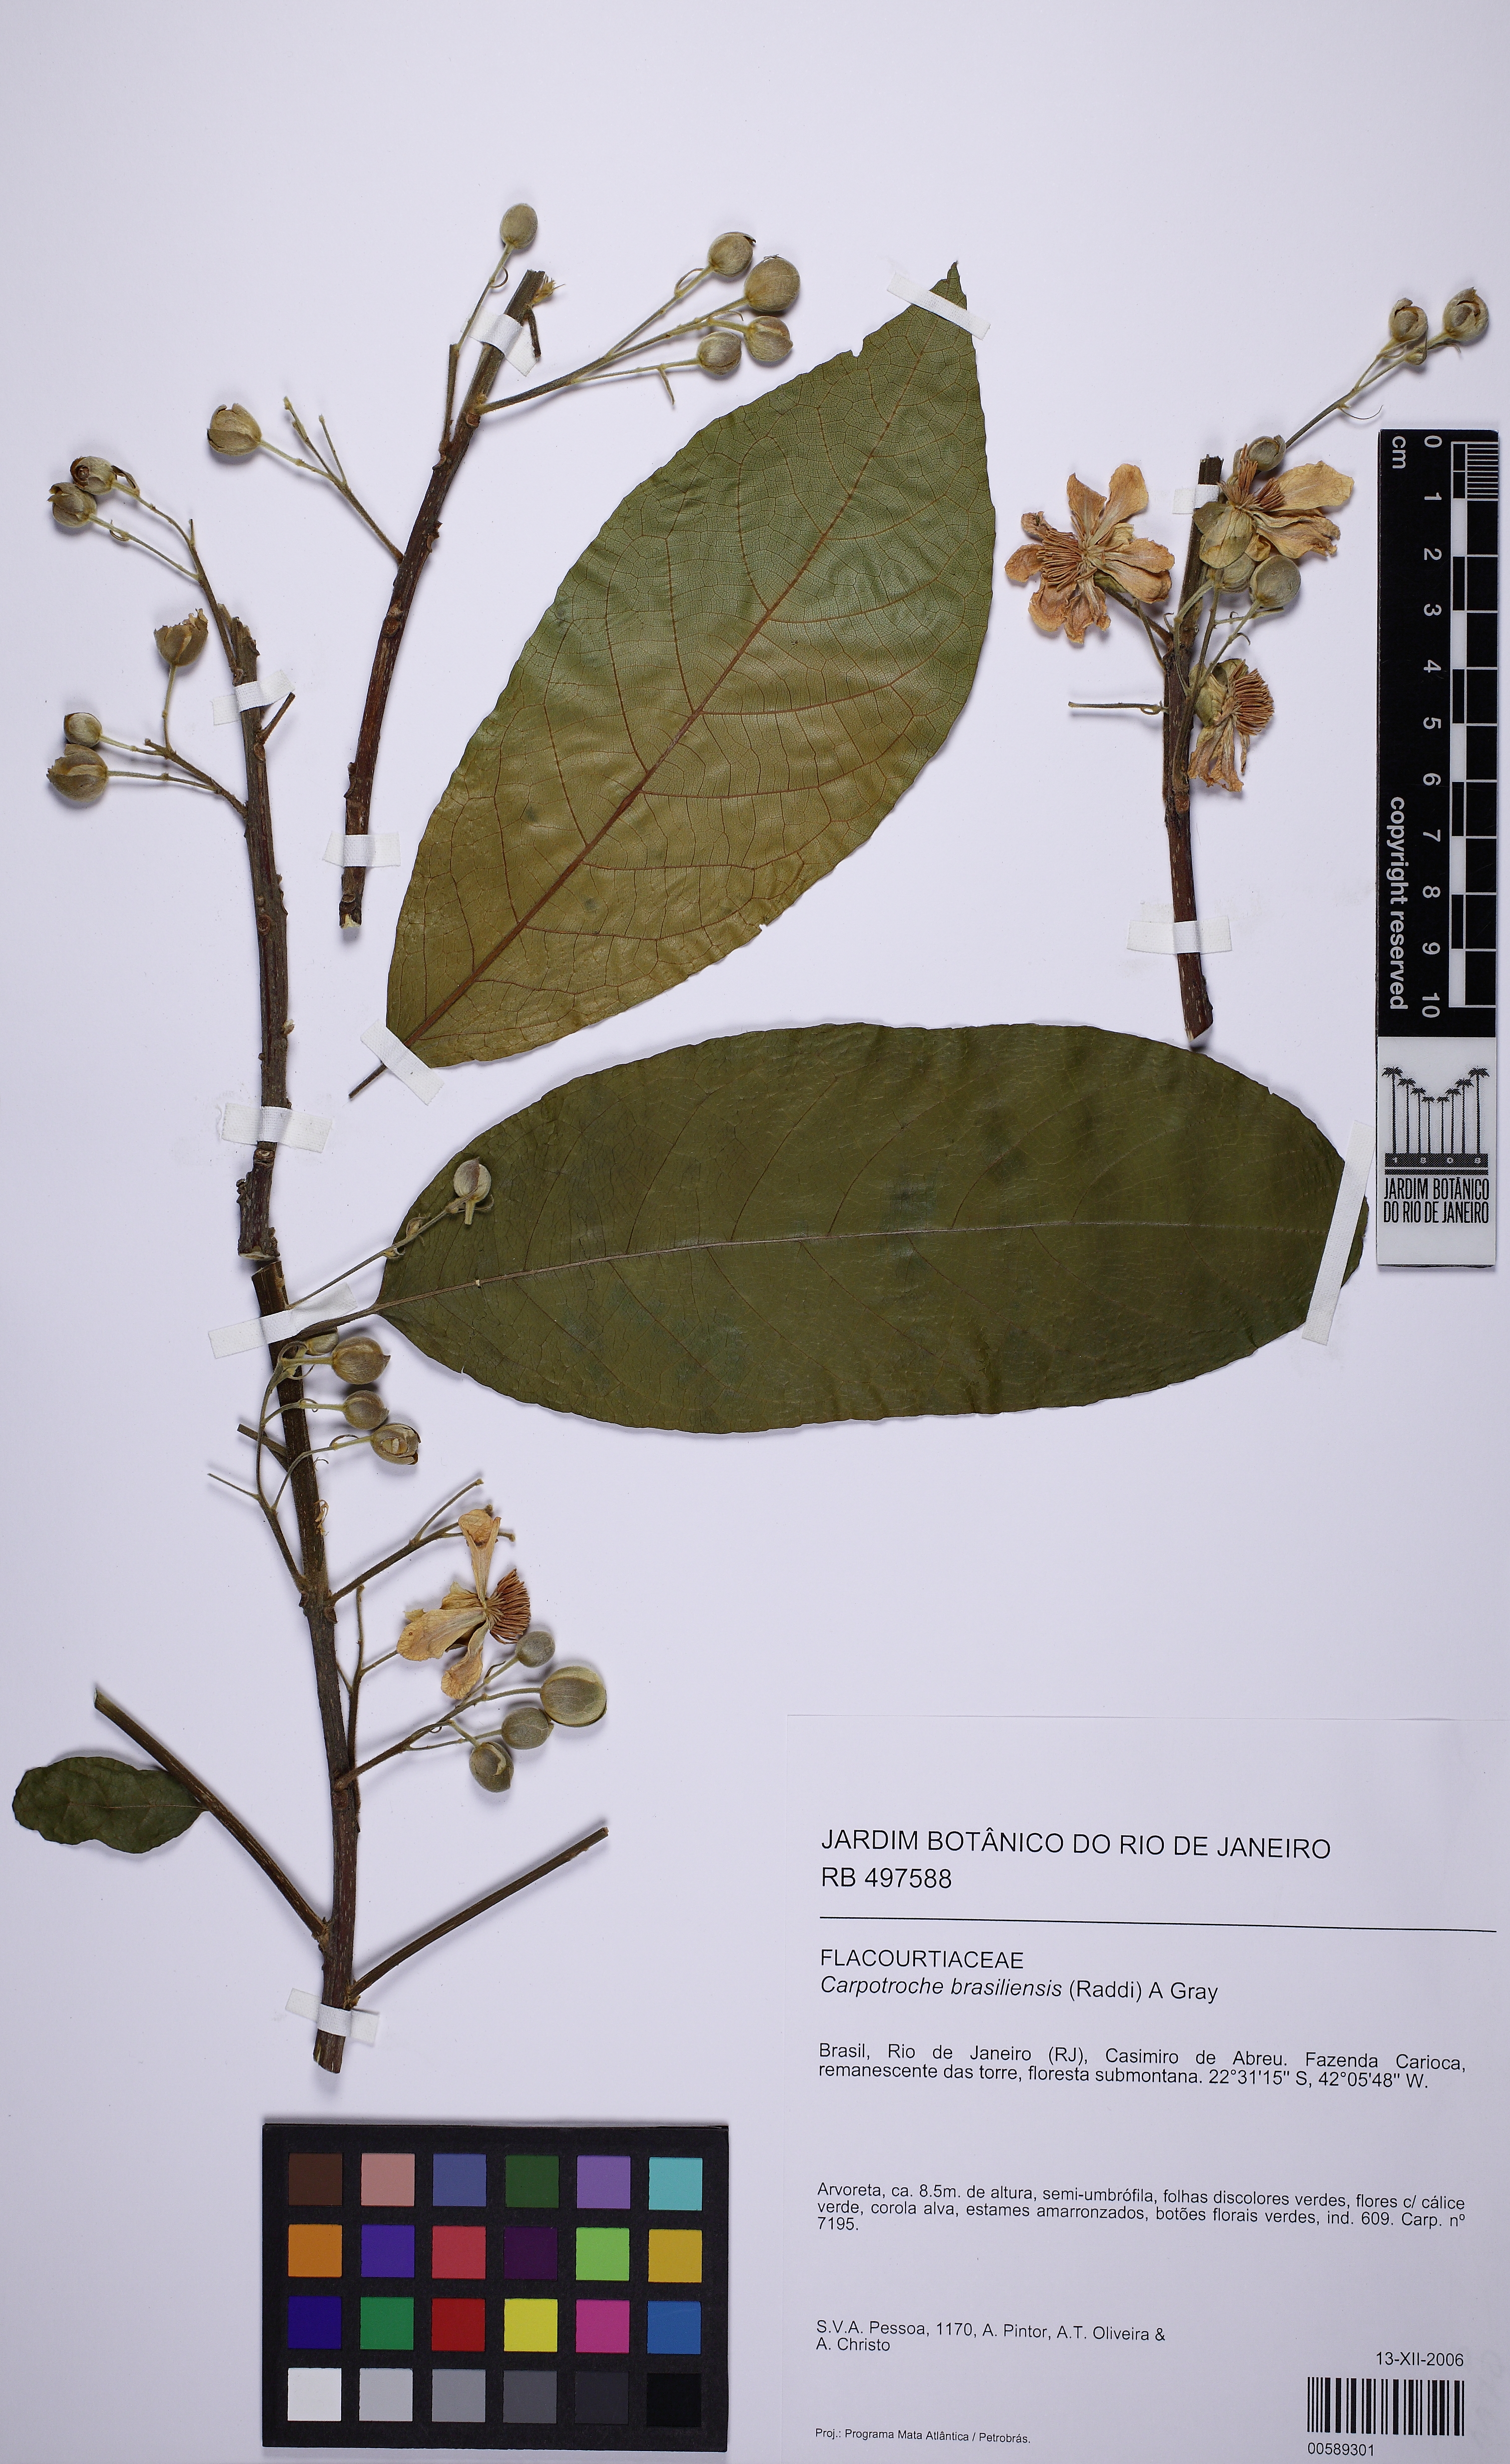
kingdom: Plantae
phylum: Tracheophyta
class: Magnoliopsida
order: Malpighiales
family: Achariaceae
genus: Carpotroche
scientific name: Carpotroche brasiliensis
